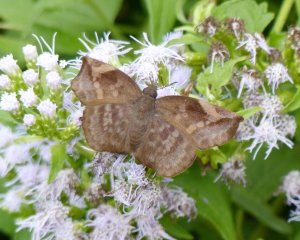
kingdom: Animalia
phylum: Arthropoda
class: Insecta
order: Lepidoptera
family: Hesperiidae
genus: Achlyodes
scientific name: Achlyodes thraso
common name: Sickle-winged Skipper
